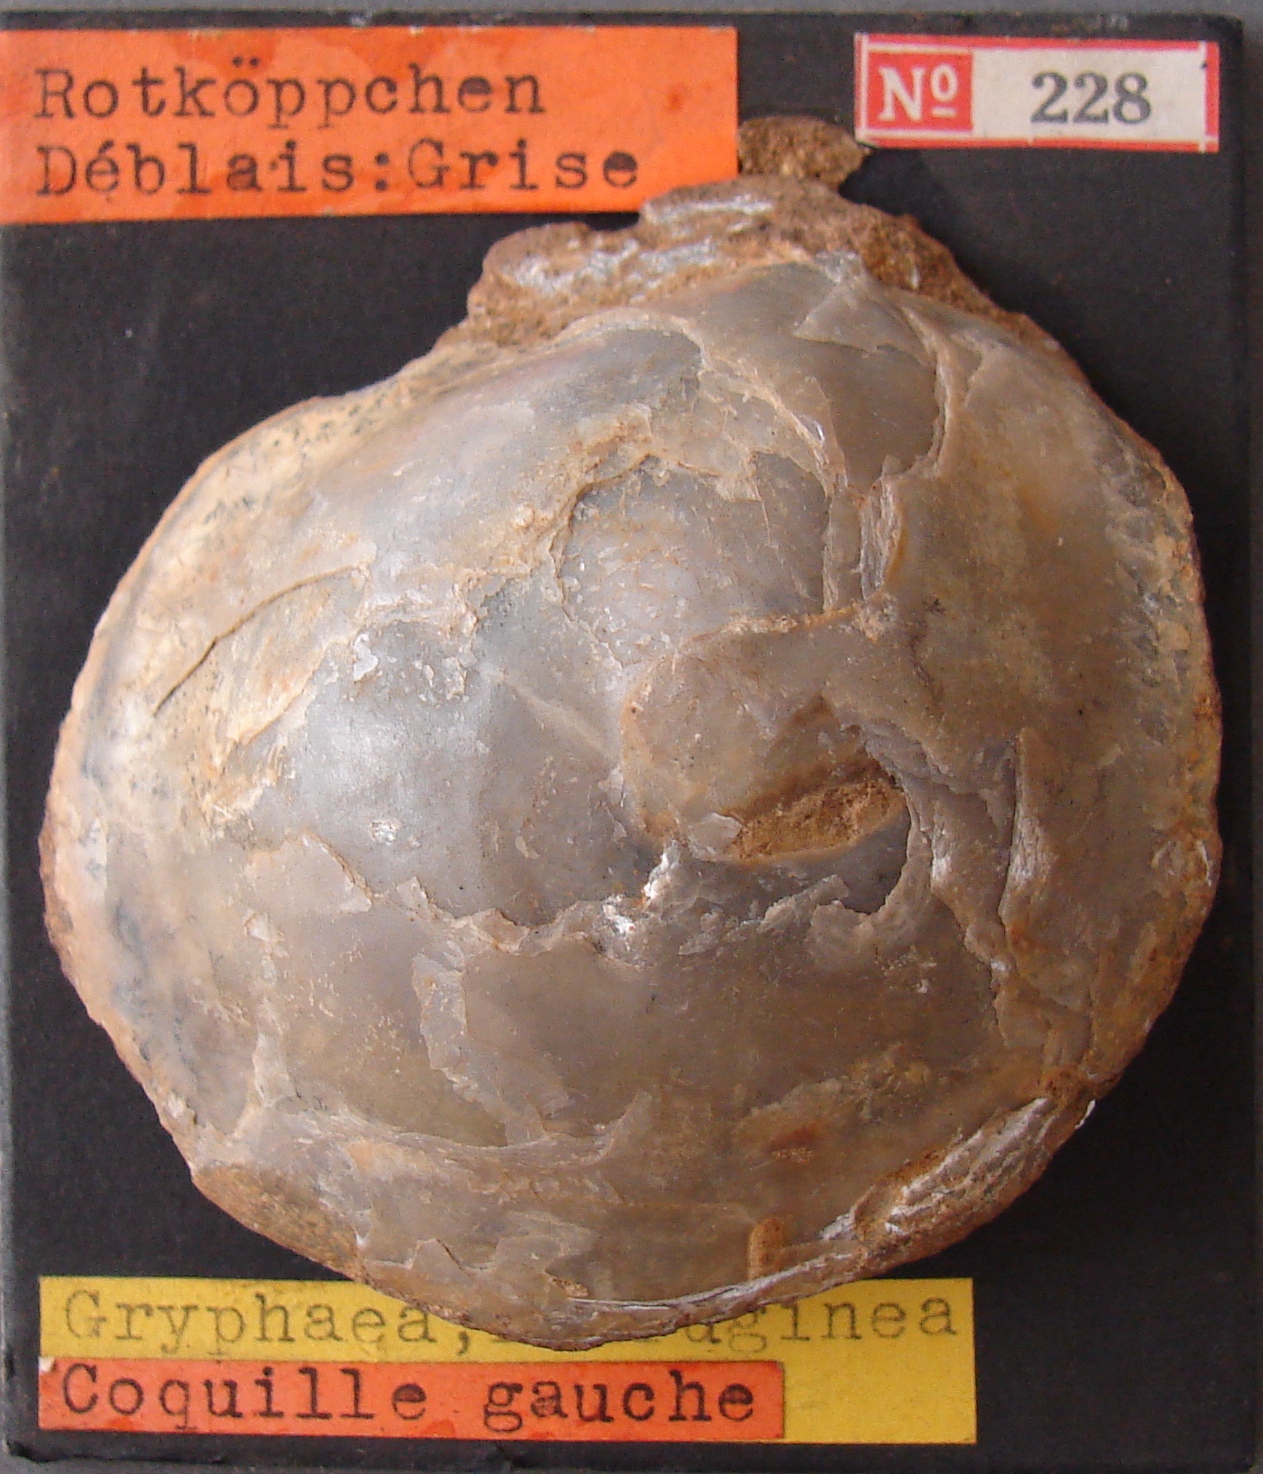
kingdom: Animalia
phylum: Mollusca
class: Bivalvia
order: Ostreida
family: Gryphaeidae
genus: Gryphaea
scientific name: Gryphaea
